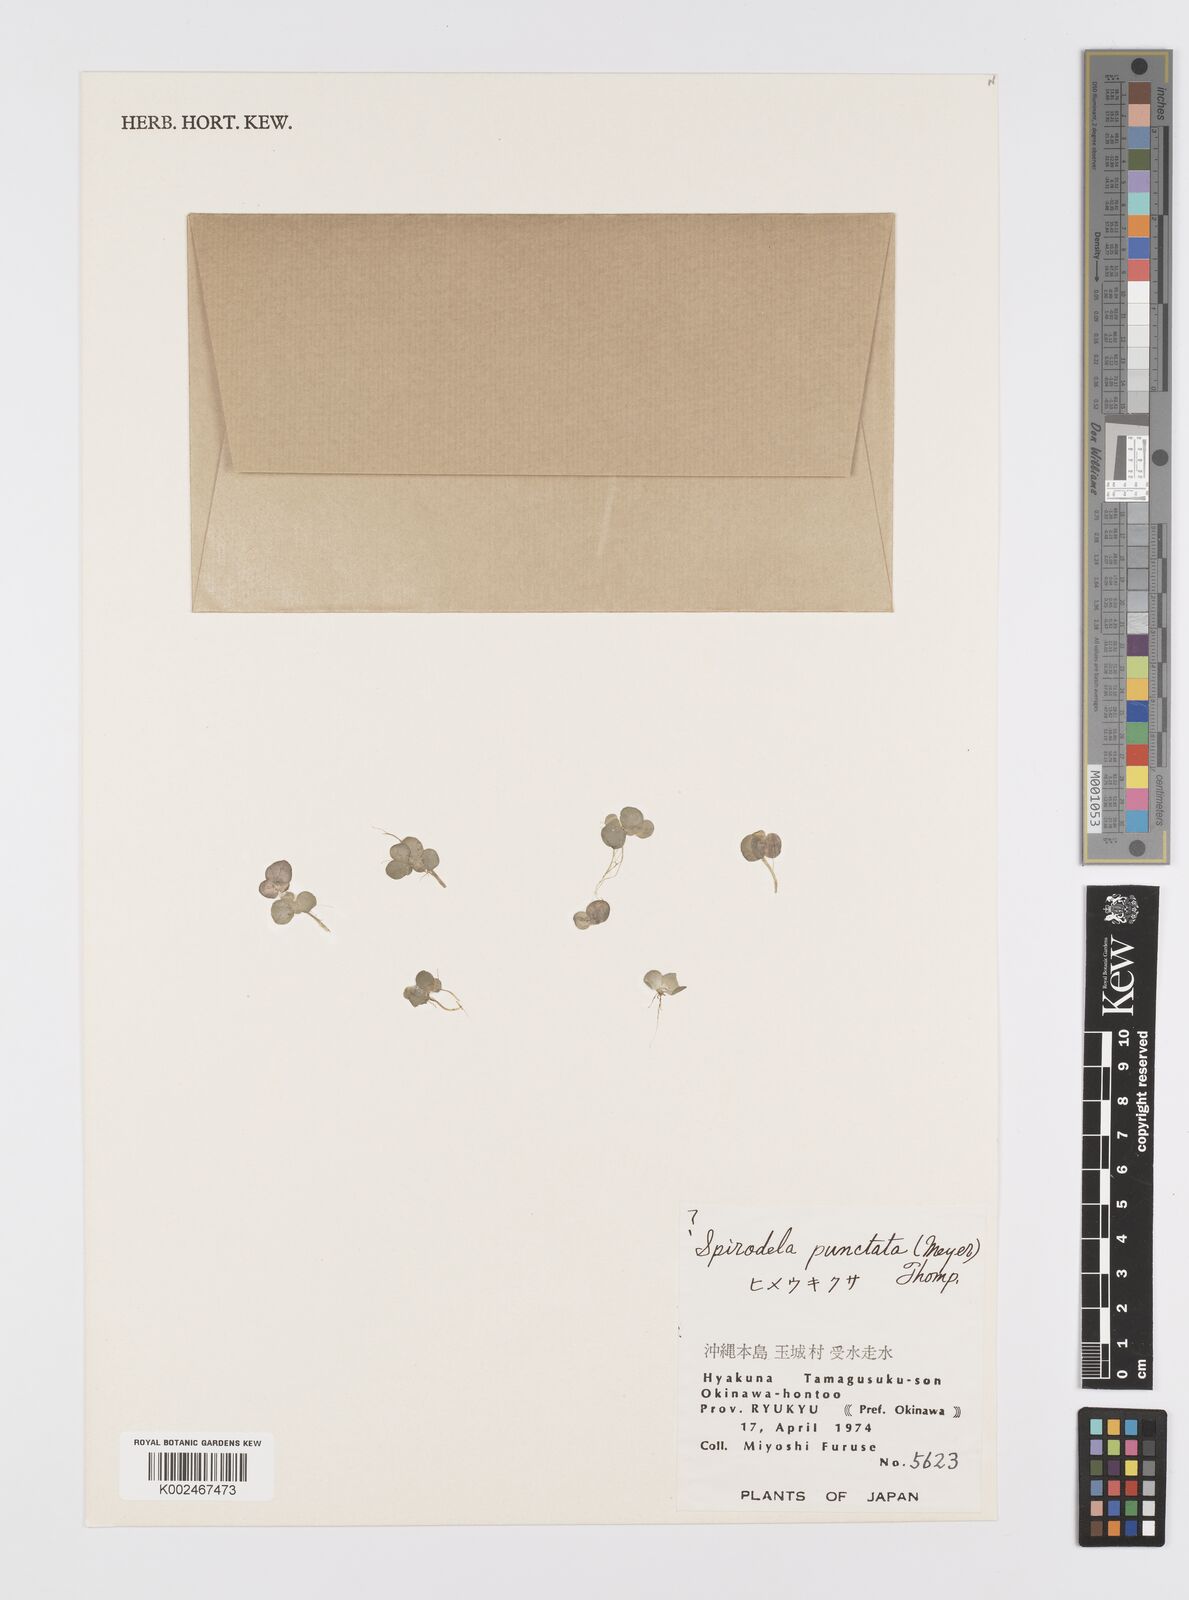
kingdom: Plantae
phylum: Tracheophyta
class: Liliopsida
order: Alismatales
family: Araceae
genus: Spirodela
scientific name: Spirodela punctata
